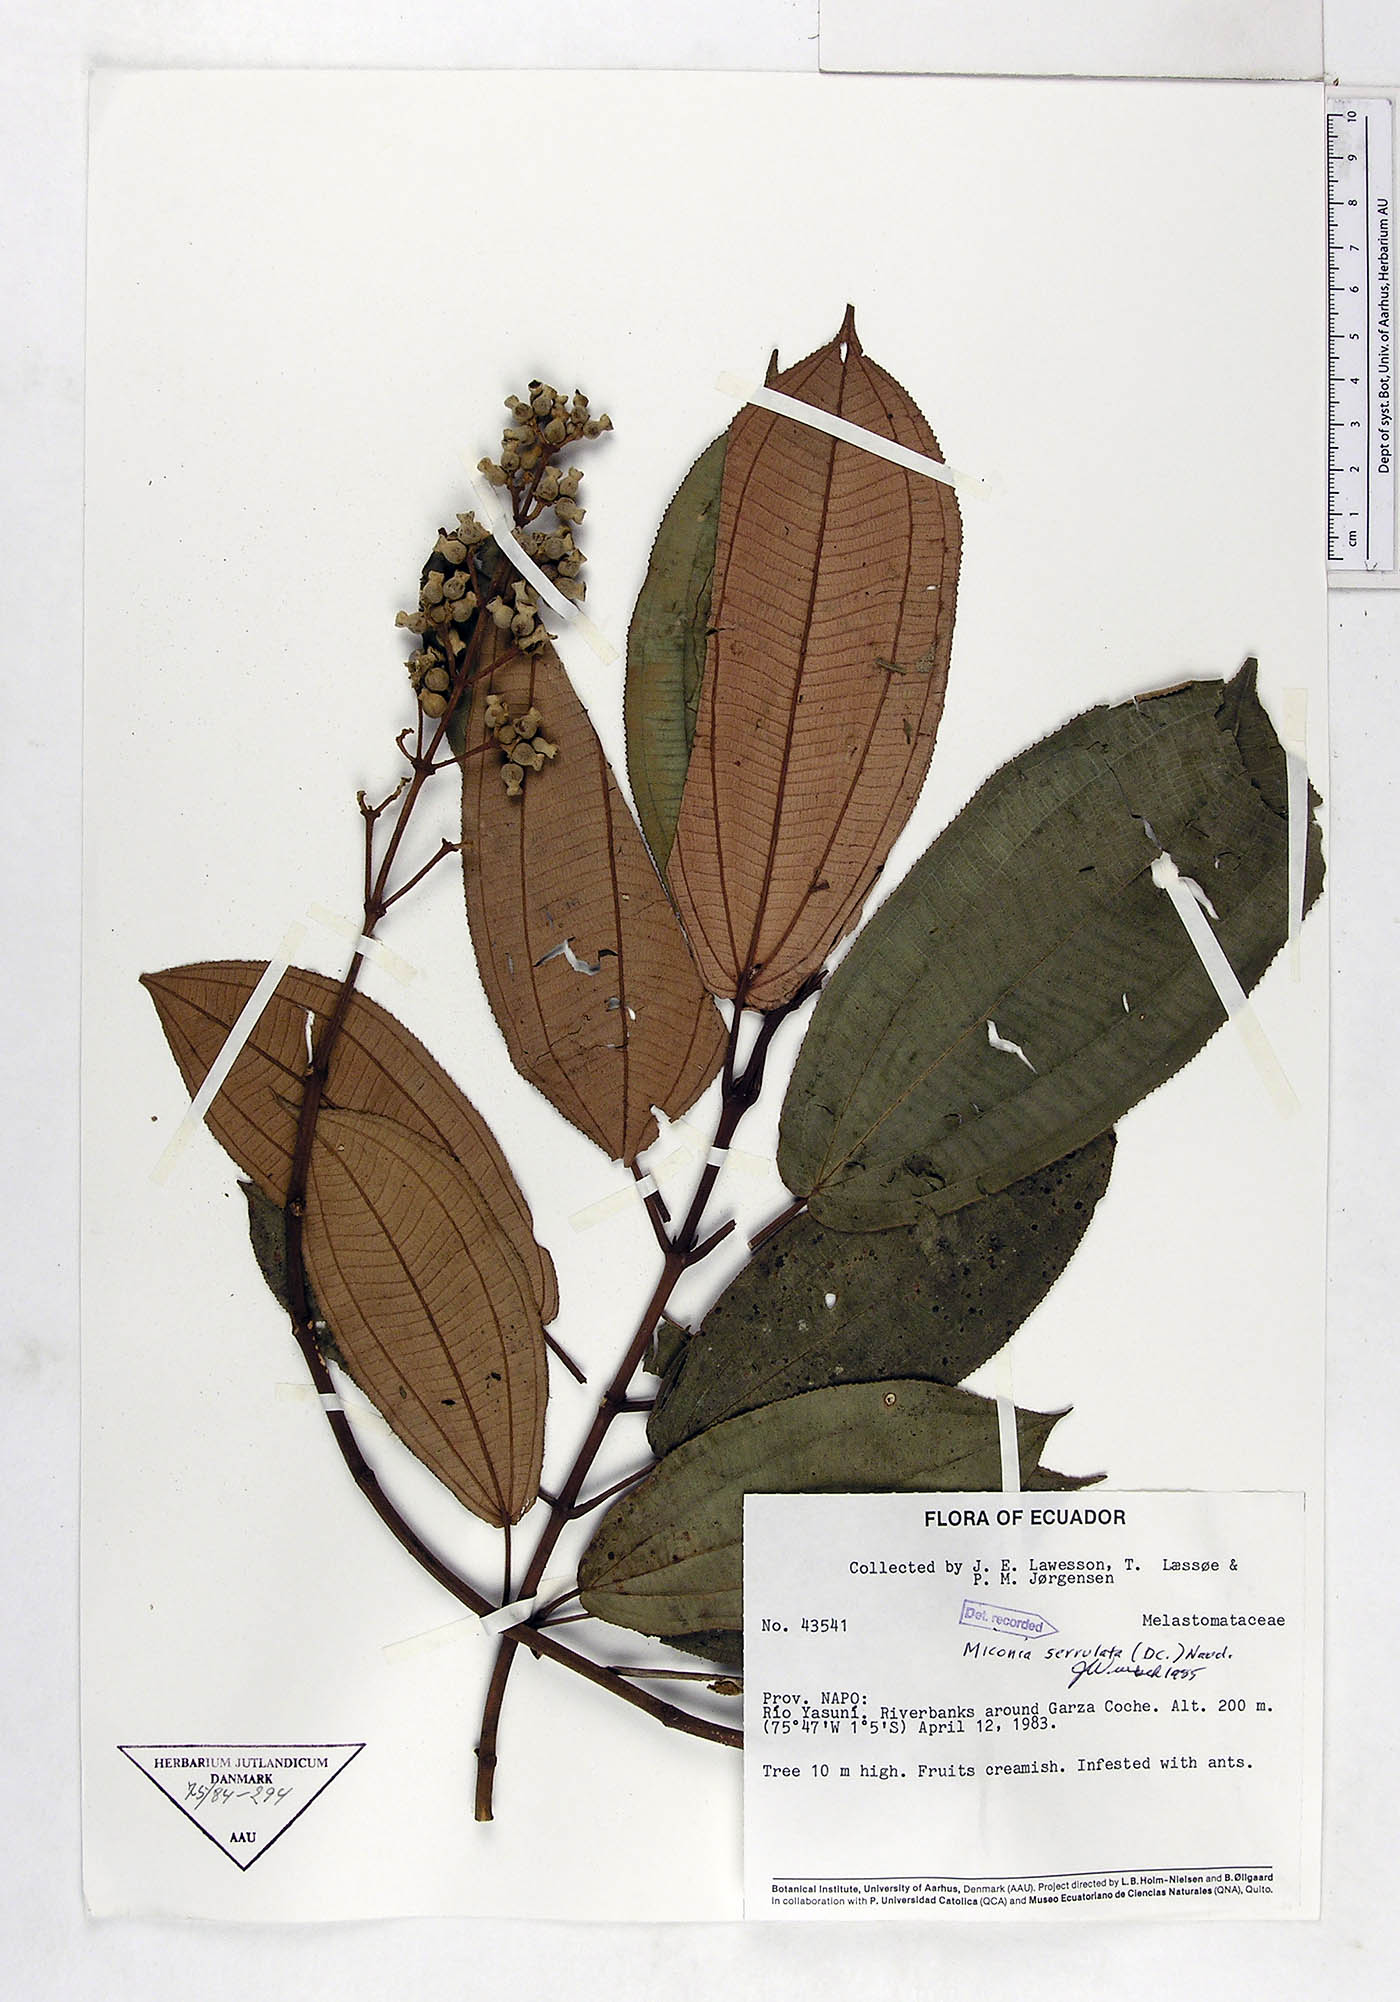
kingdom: Plantae
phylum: Tracheophyta
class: Magnoliopsida
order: Myrtales
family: Melastomataceae
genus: Miconia
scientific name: Miconia serrulata
